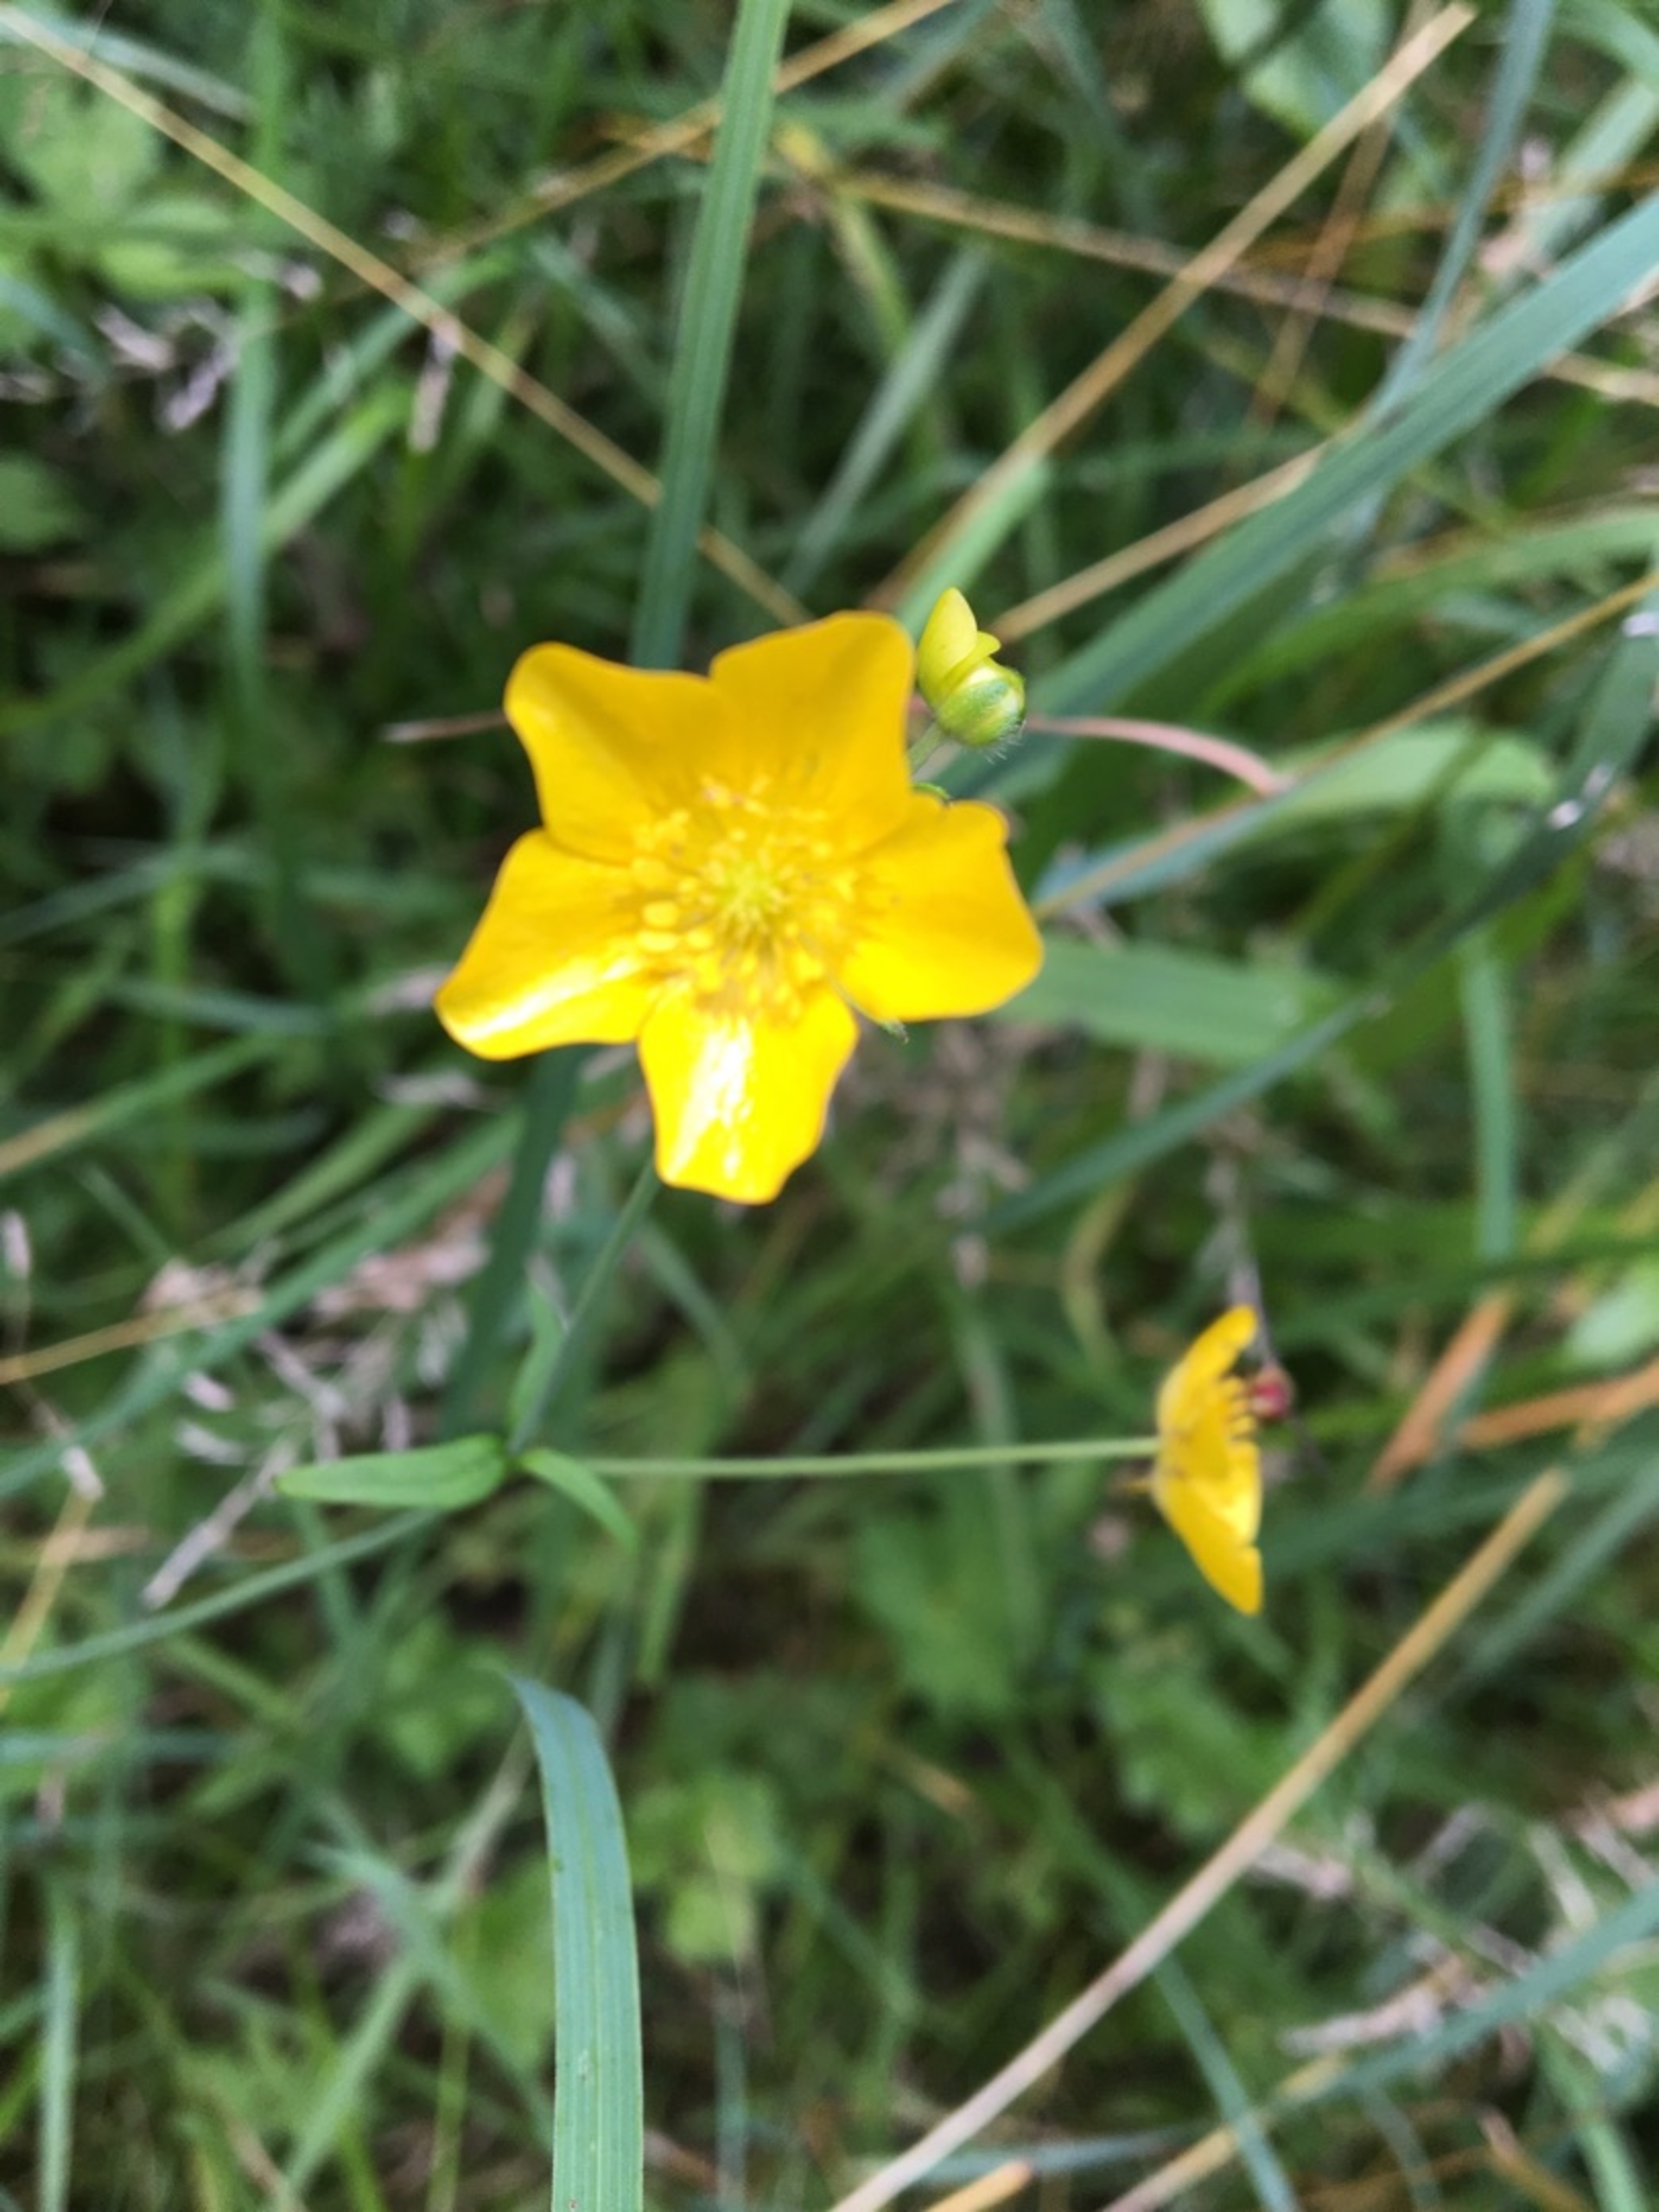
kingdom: Plantae
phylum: Tracheophyta
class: Magnoliopsida
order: Ranunculales
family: Ranunculaceae
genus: Ranunculus
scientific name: Ranunculus acris
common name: Bidende ranunkel
